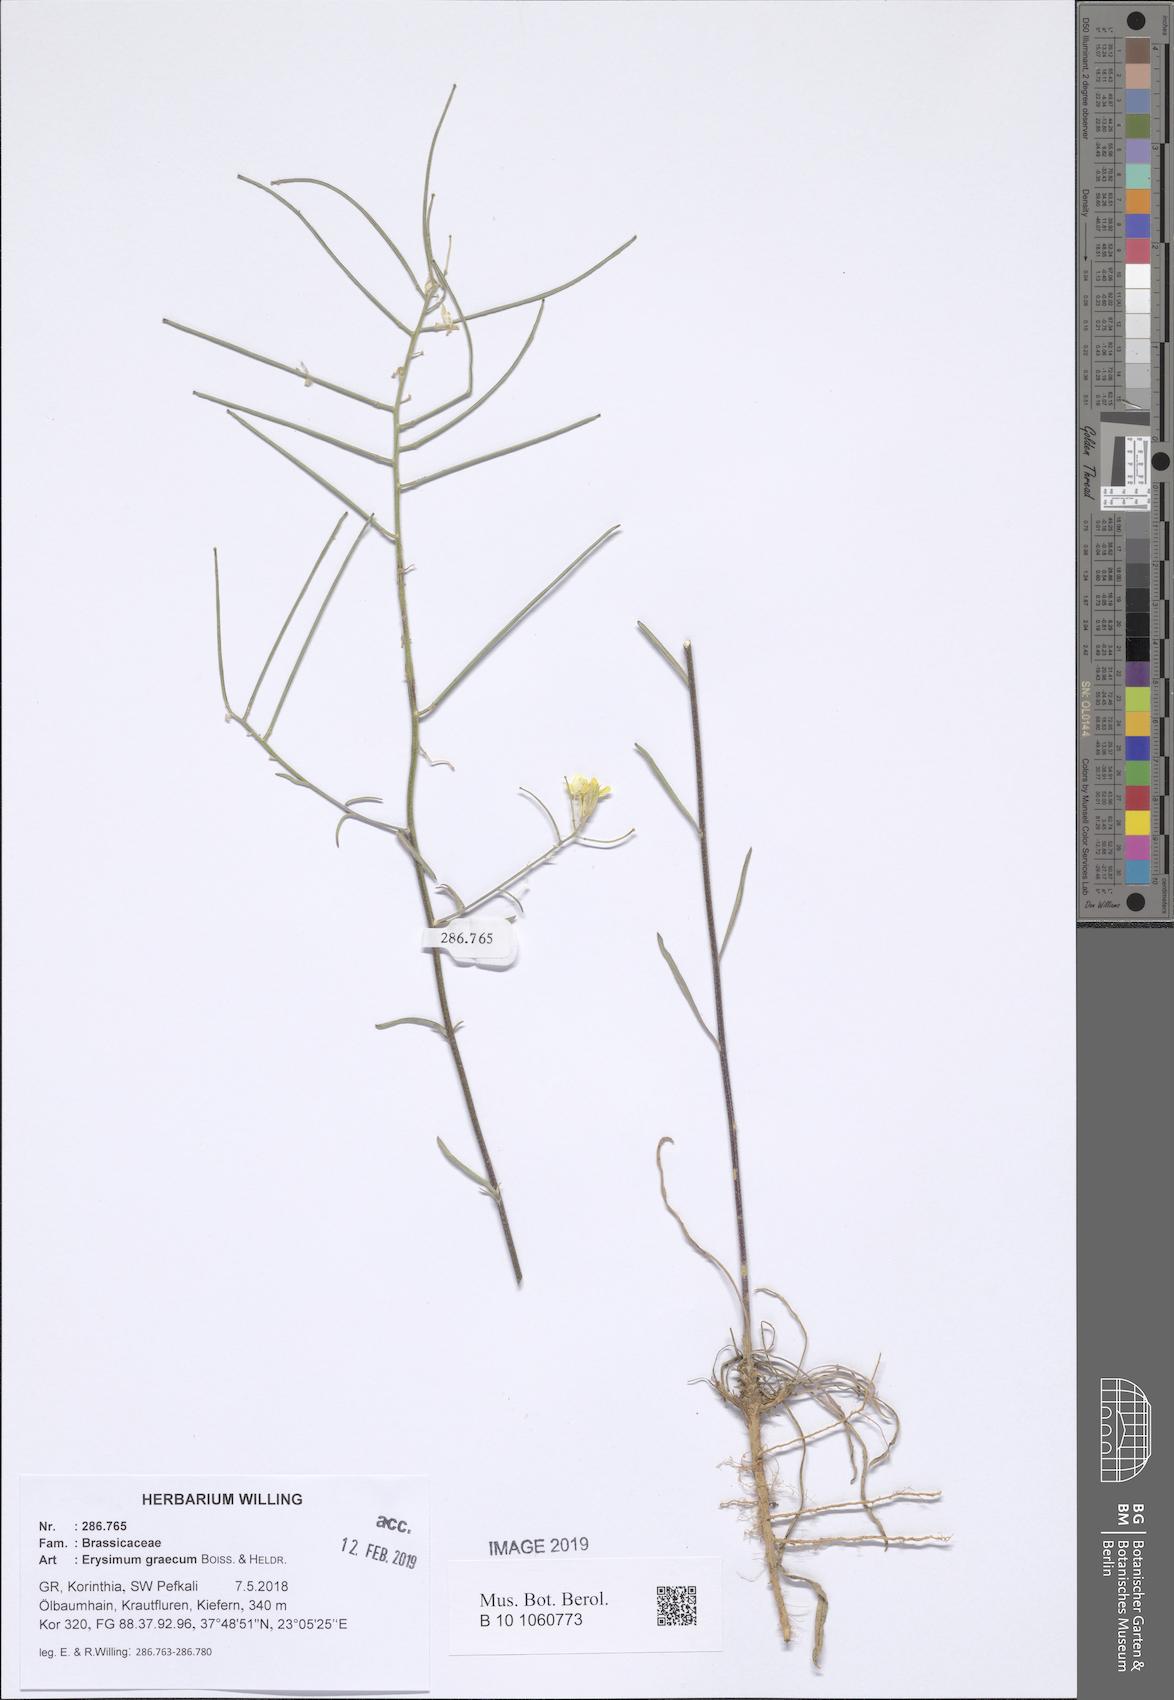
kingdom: Plantae
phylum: Tracheophyta
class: Magnoliopsida
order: Brassicales
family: Brassicaceae
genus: Erysimum
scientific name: Erysimum graecum
